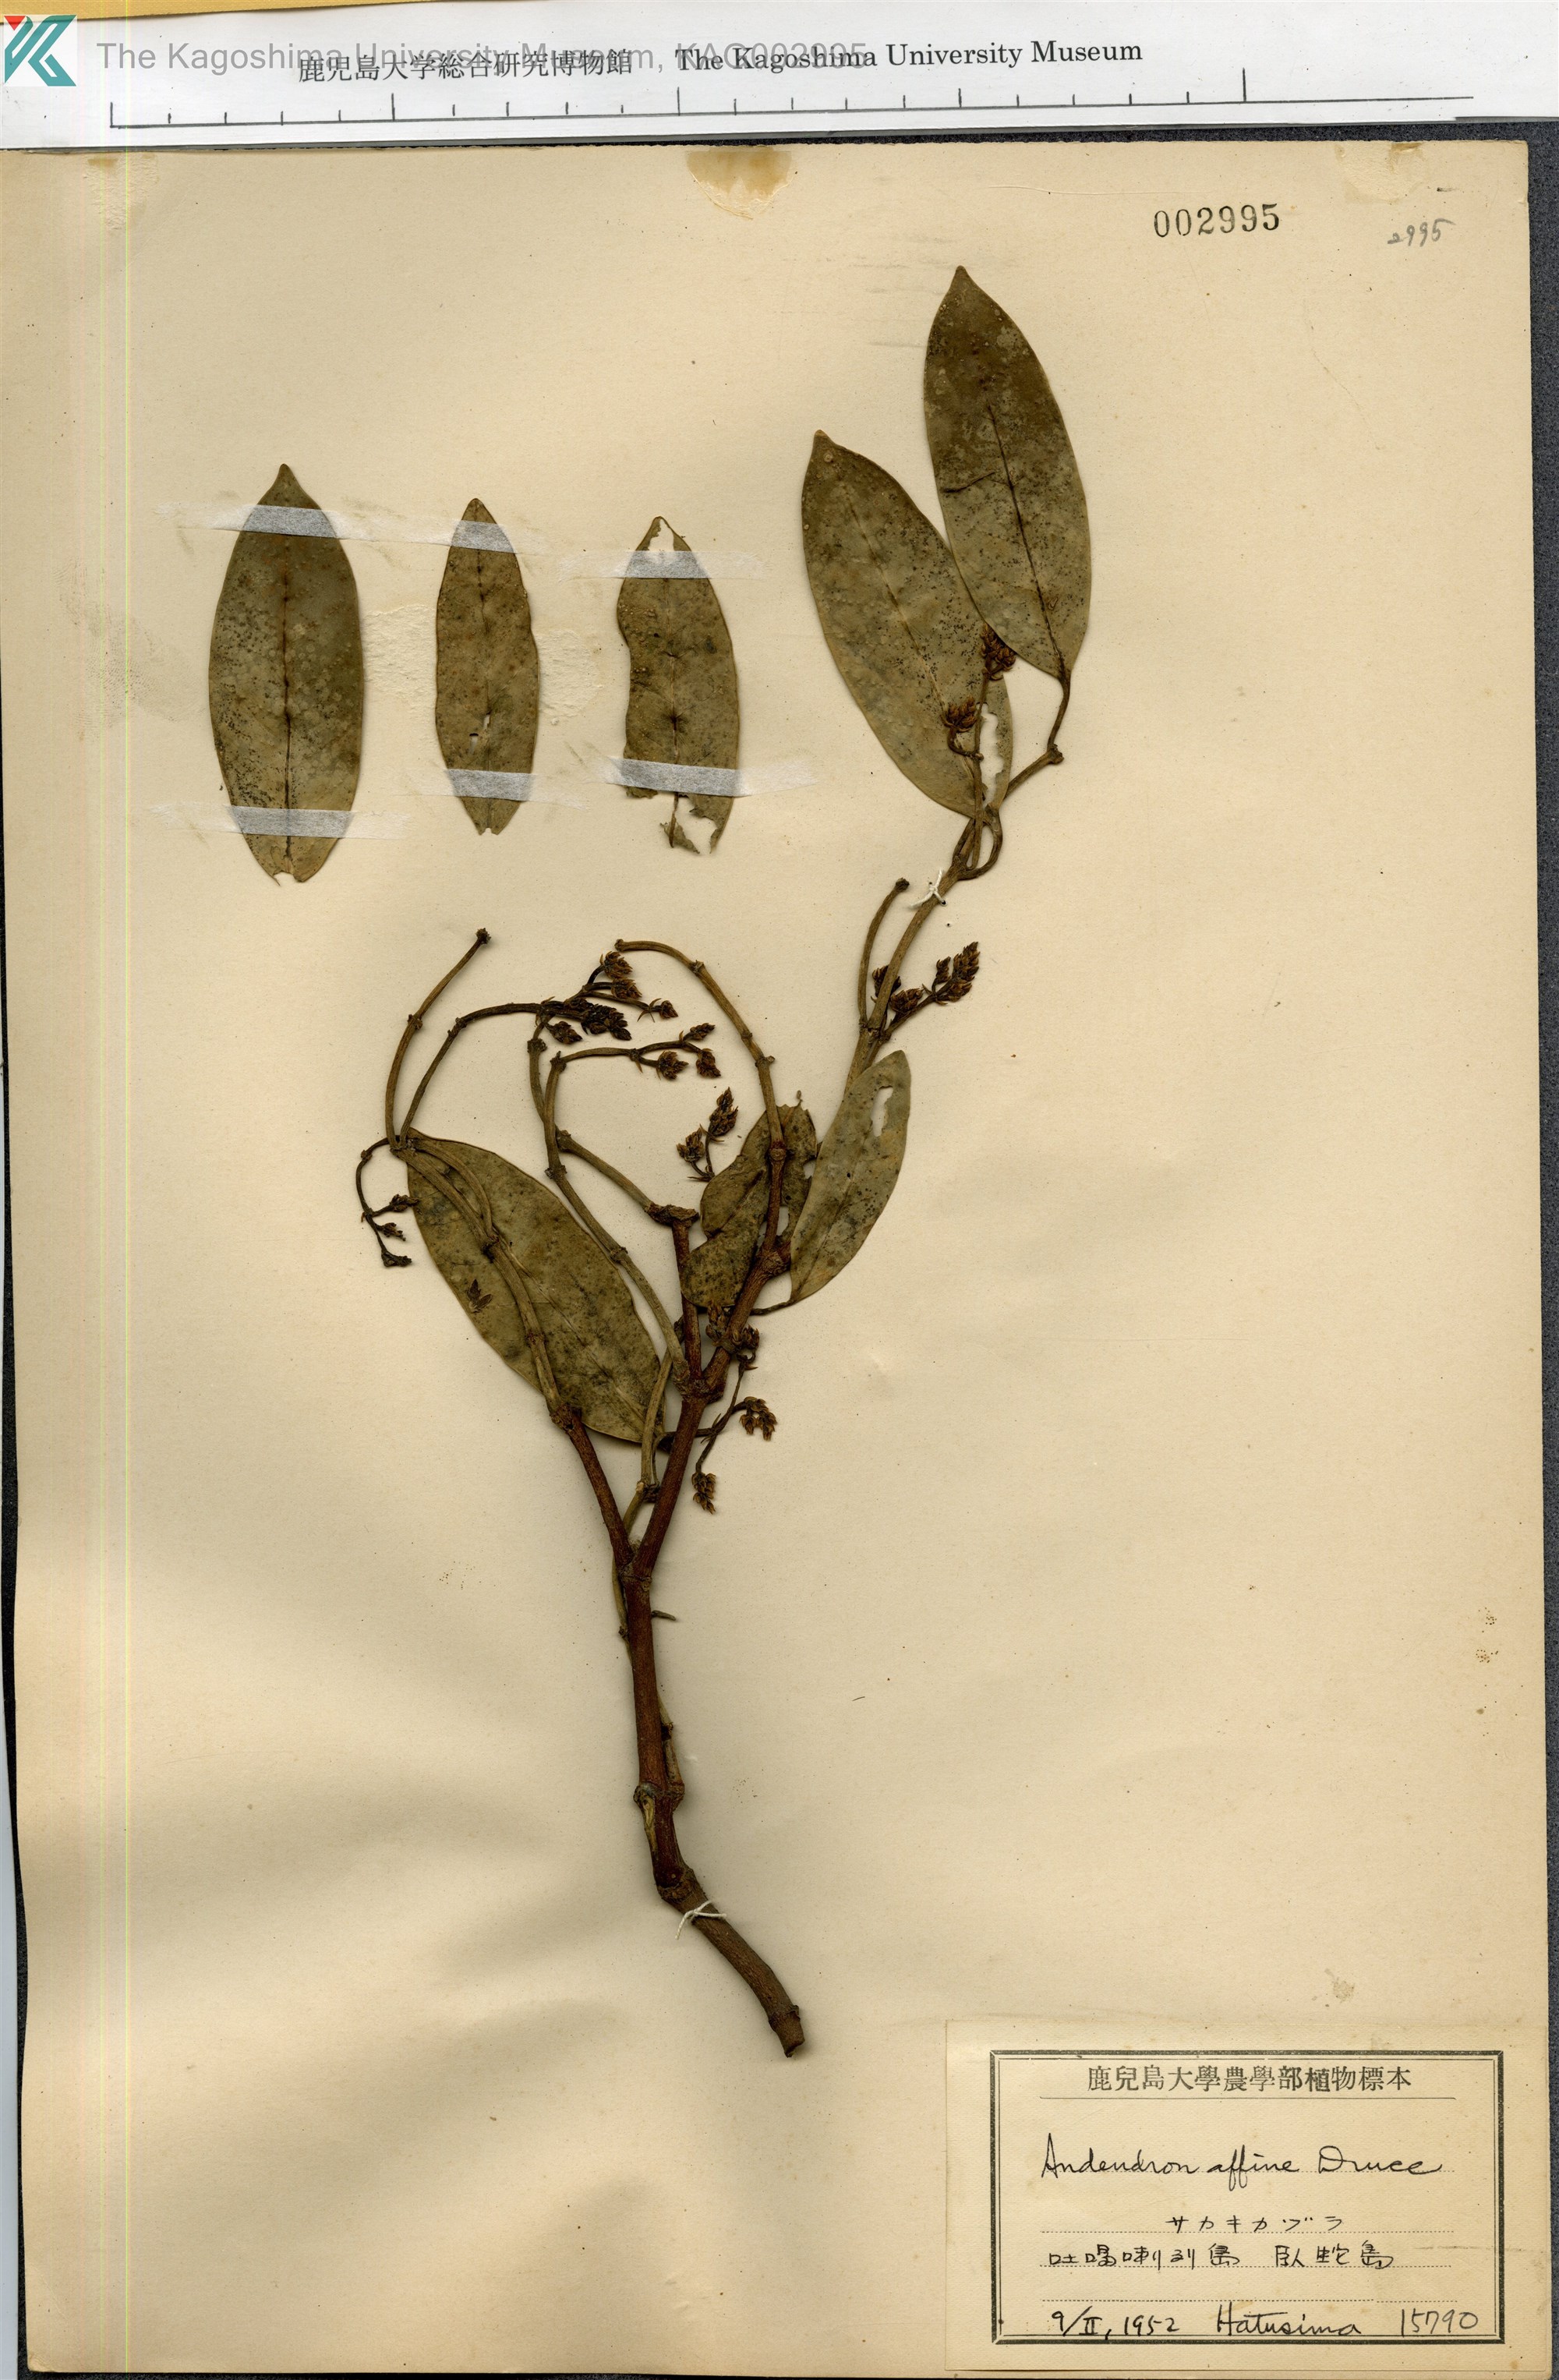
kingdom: Plantae
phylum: Tracheophyta
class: Magnoliopsida
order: Gentianales
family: Apocynaceae
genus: Anodendron
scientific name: Anodendron affine
